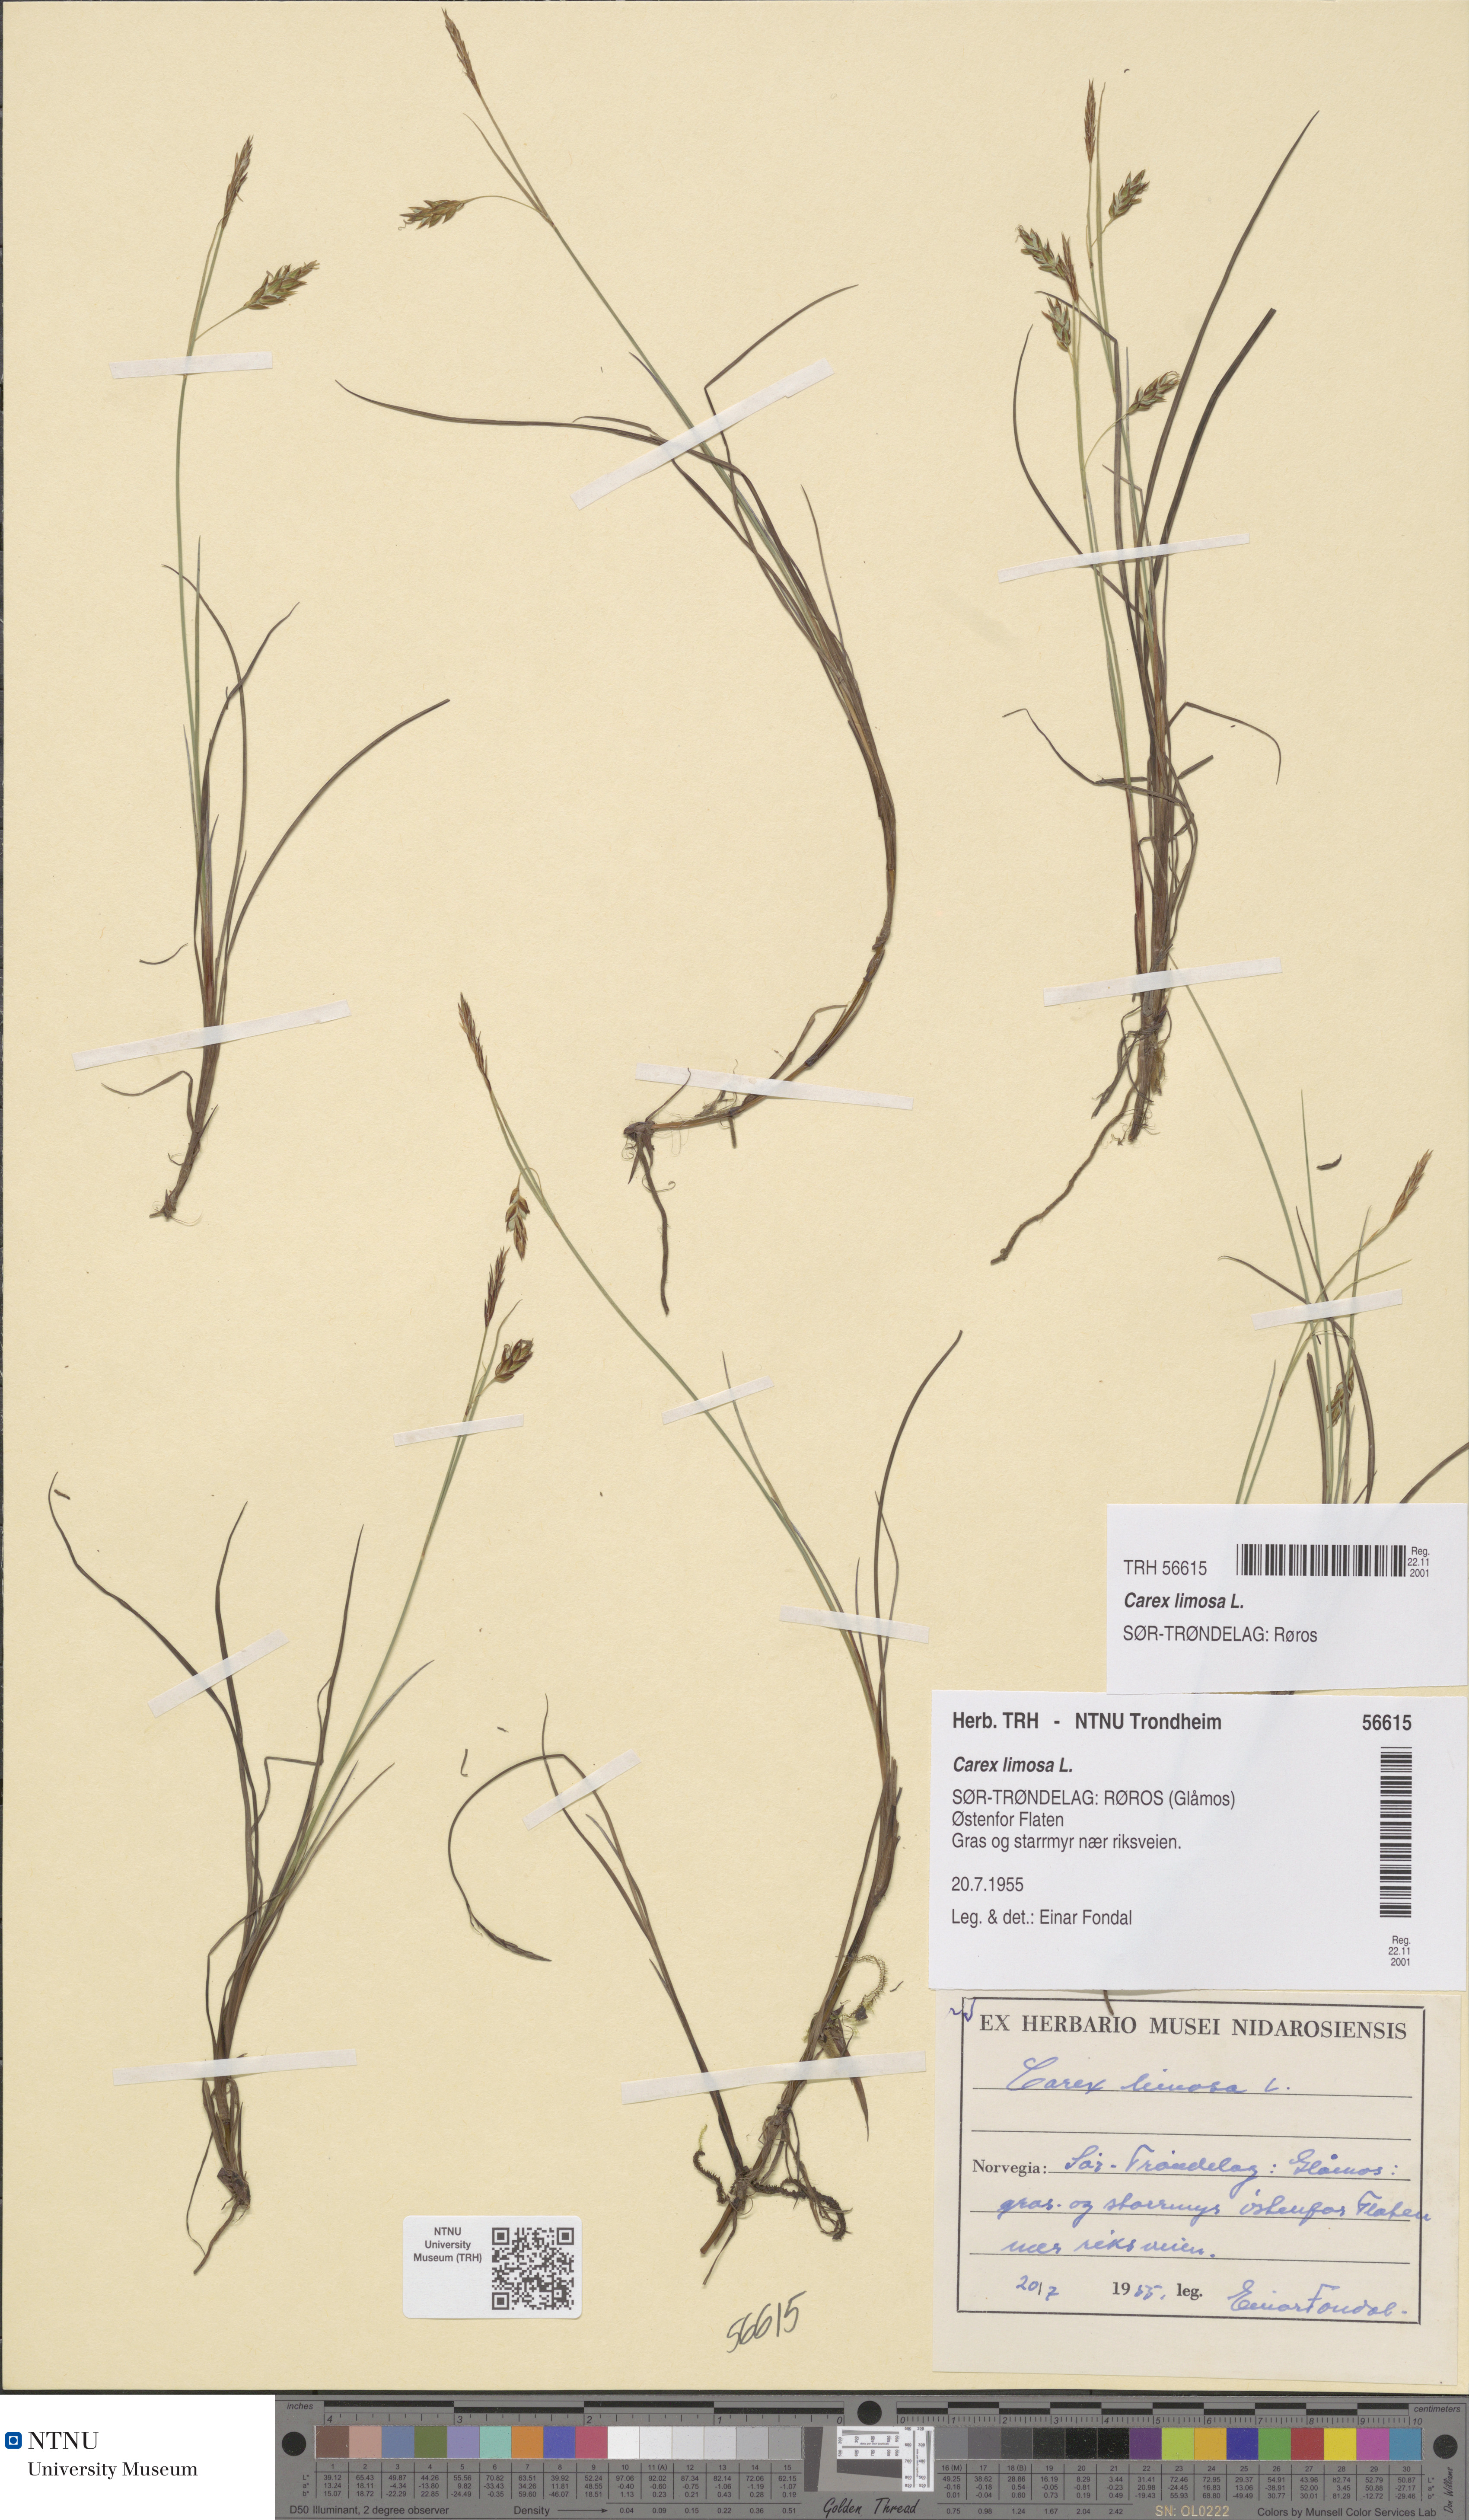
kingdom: Plantae
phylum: Tracheophyta
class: Liliopsida
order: Poales
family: Cyperaceae
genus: Carex
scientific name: Carex limosa
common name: Bog sedge
